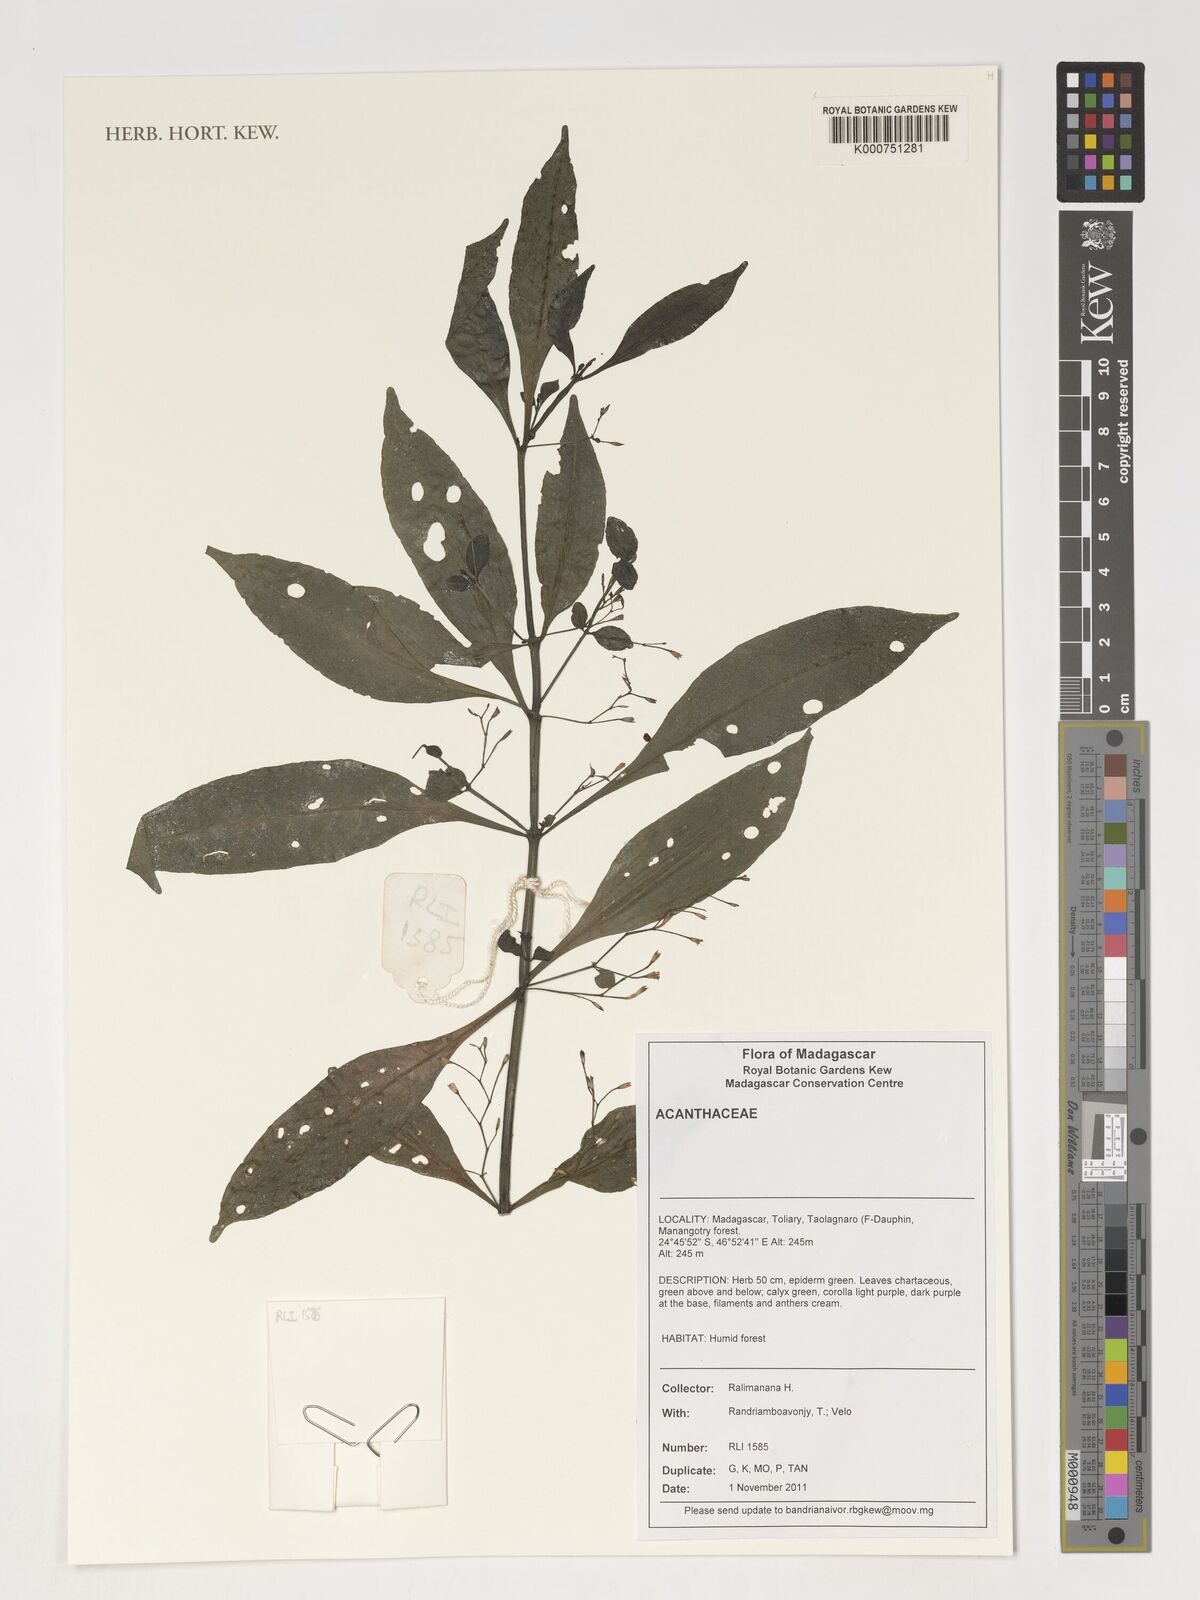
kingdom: Plantae
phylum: Tracheophyta
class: Magnoliopsida
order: Lamiales
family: Acanthaceae
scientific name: Acanthaceae
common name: Acanthaceae
